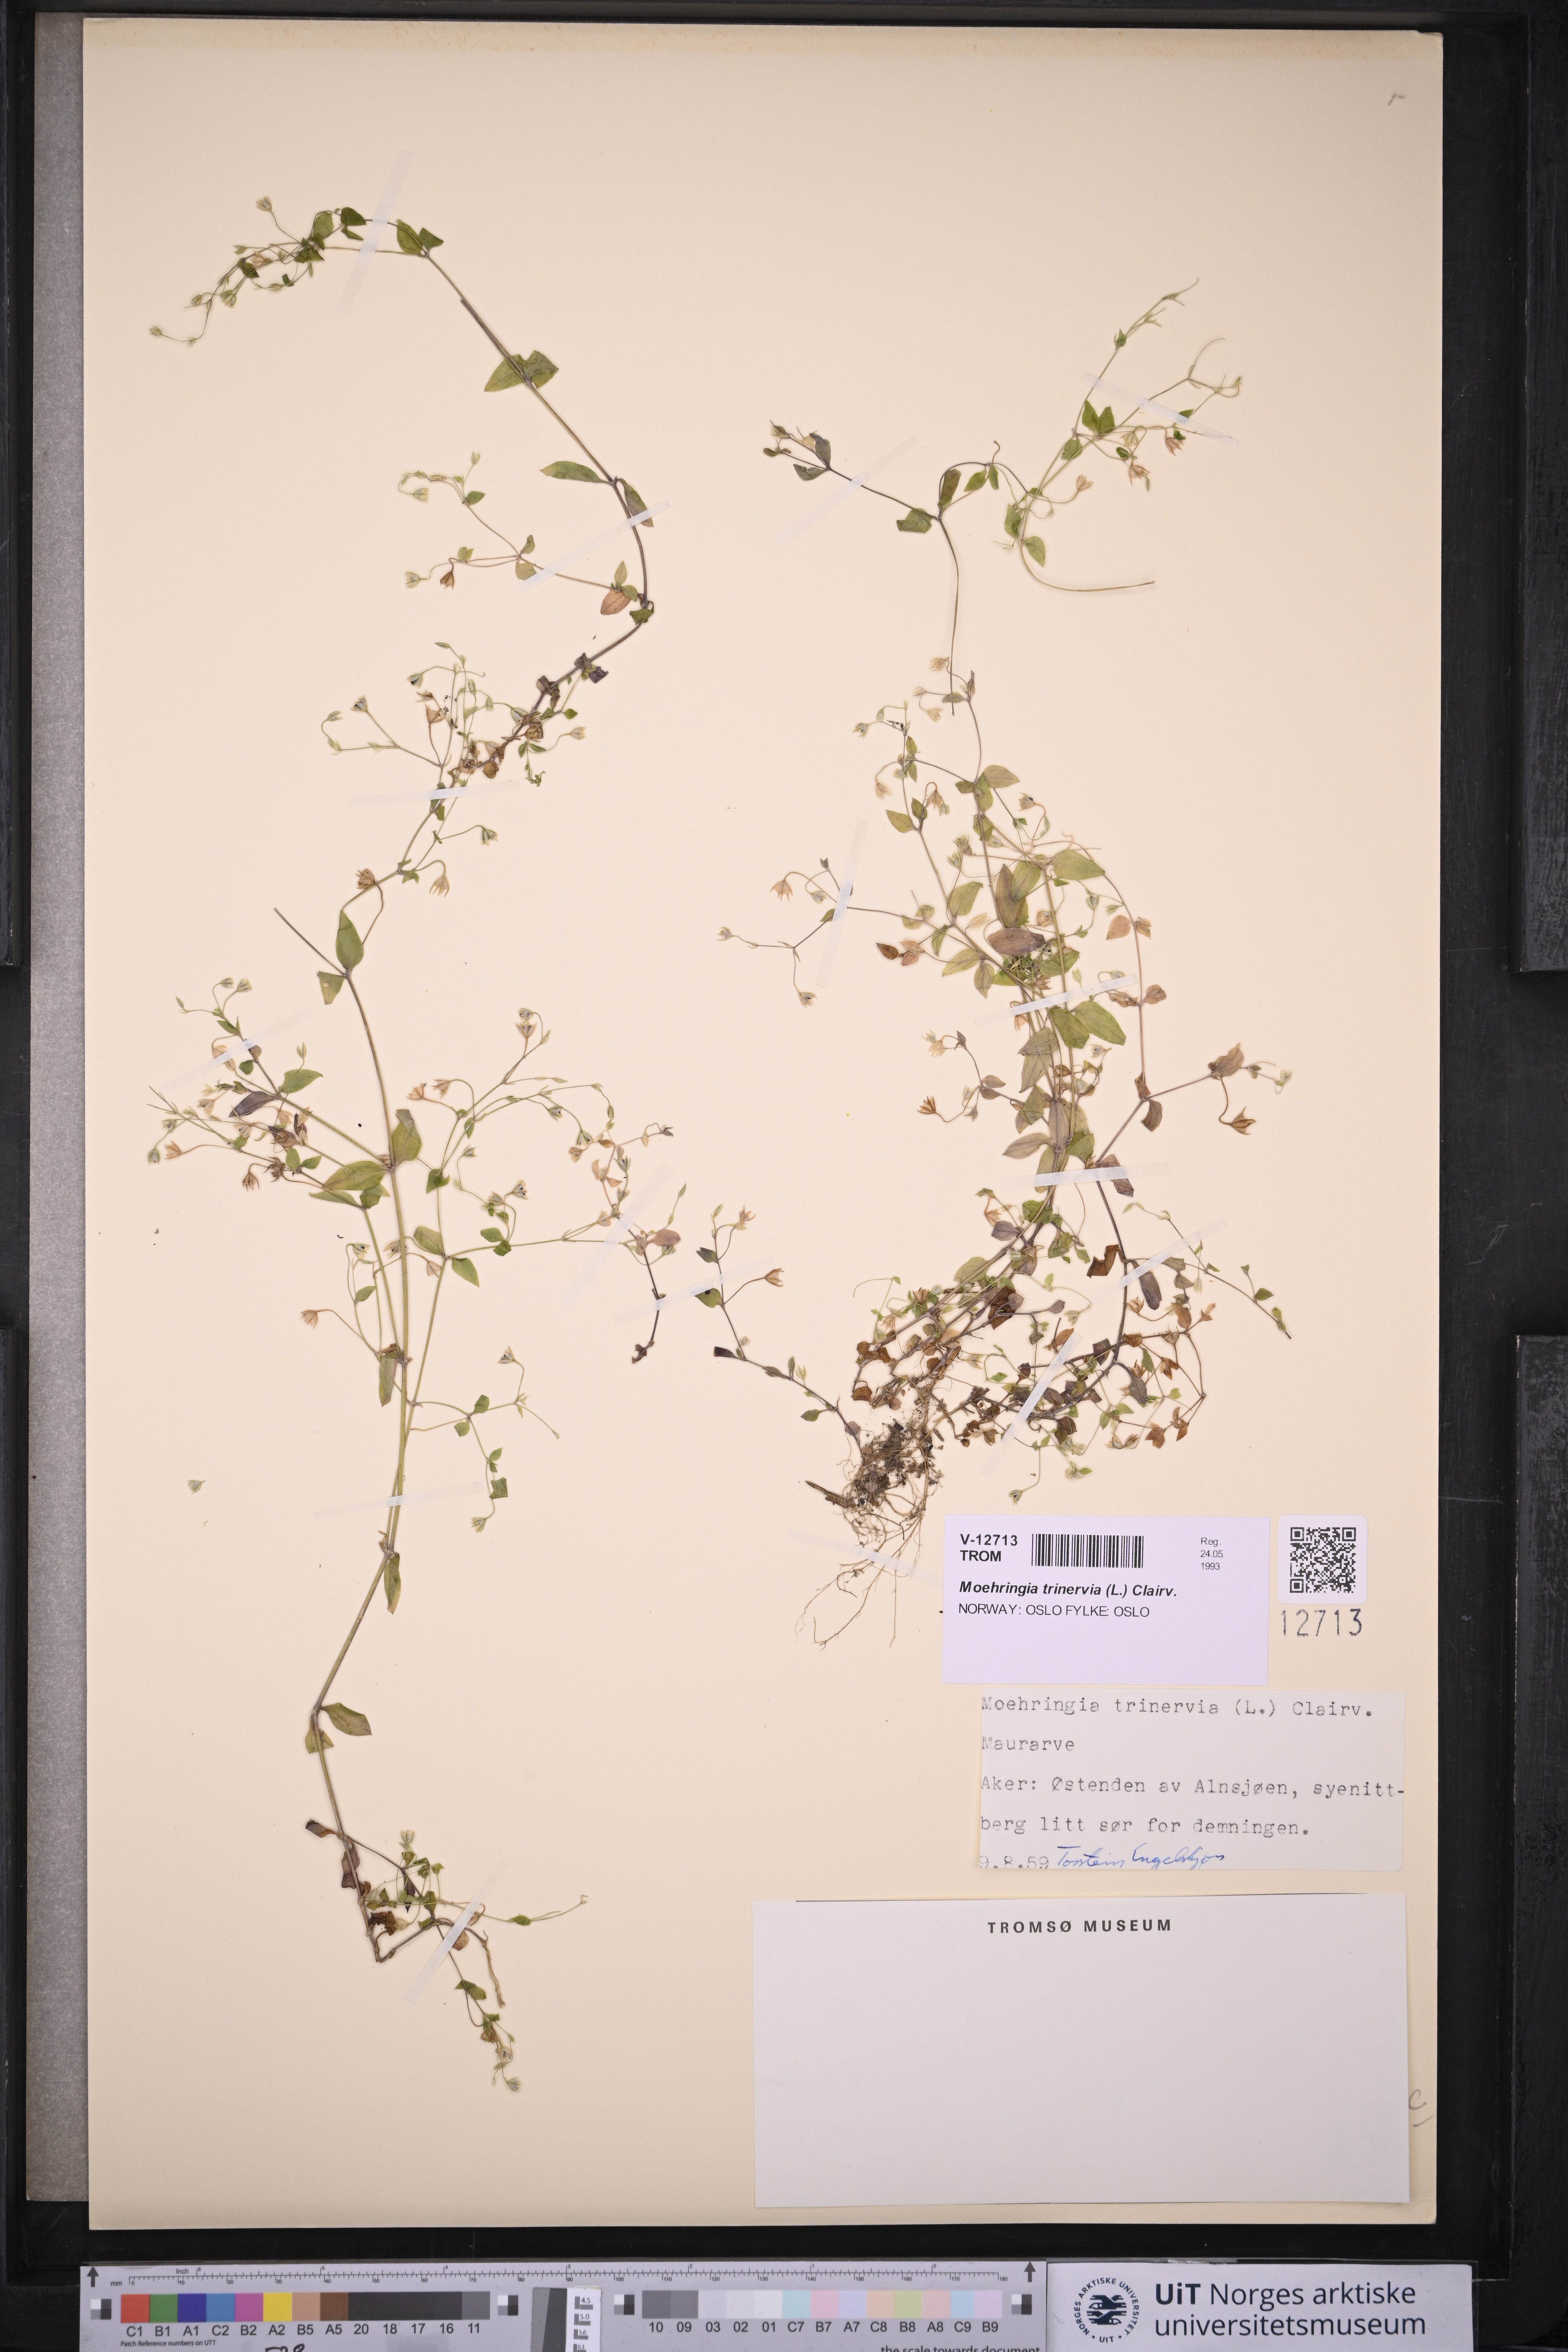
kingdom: Plantae
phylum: Tracheophyta
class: Magnoliopsida
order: Caryophyllales
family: Caryophyllaceae
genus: Moehringia
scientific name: Moehringia trinervia
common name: Three-nerved sandwort
